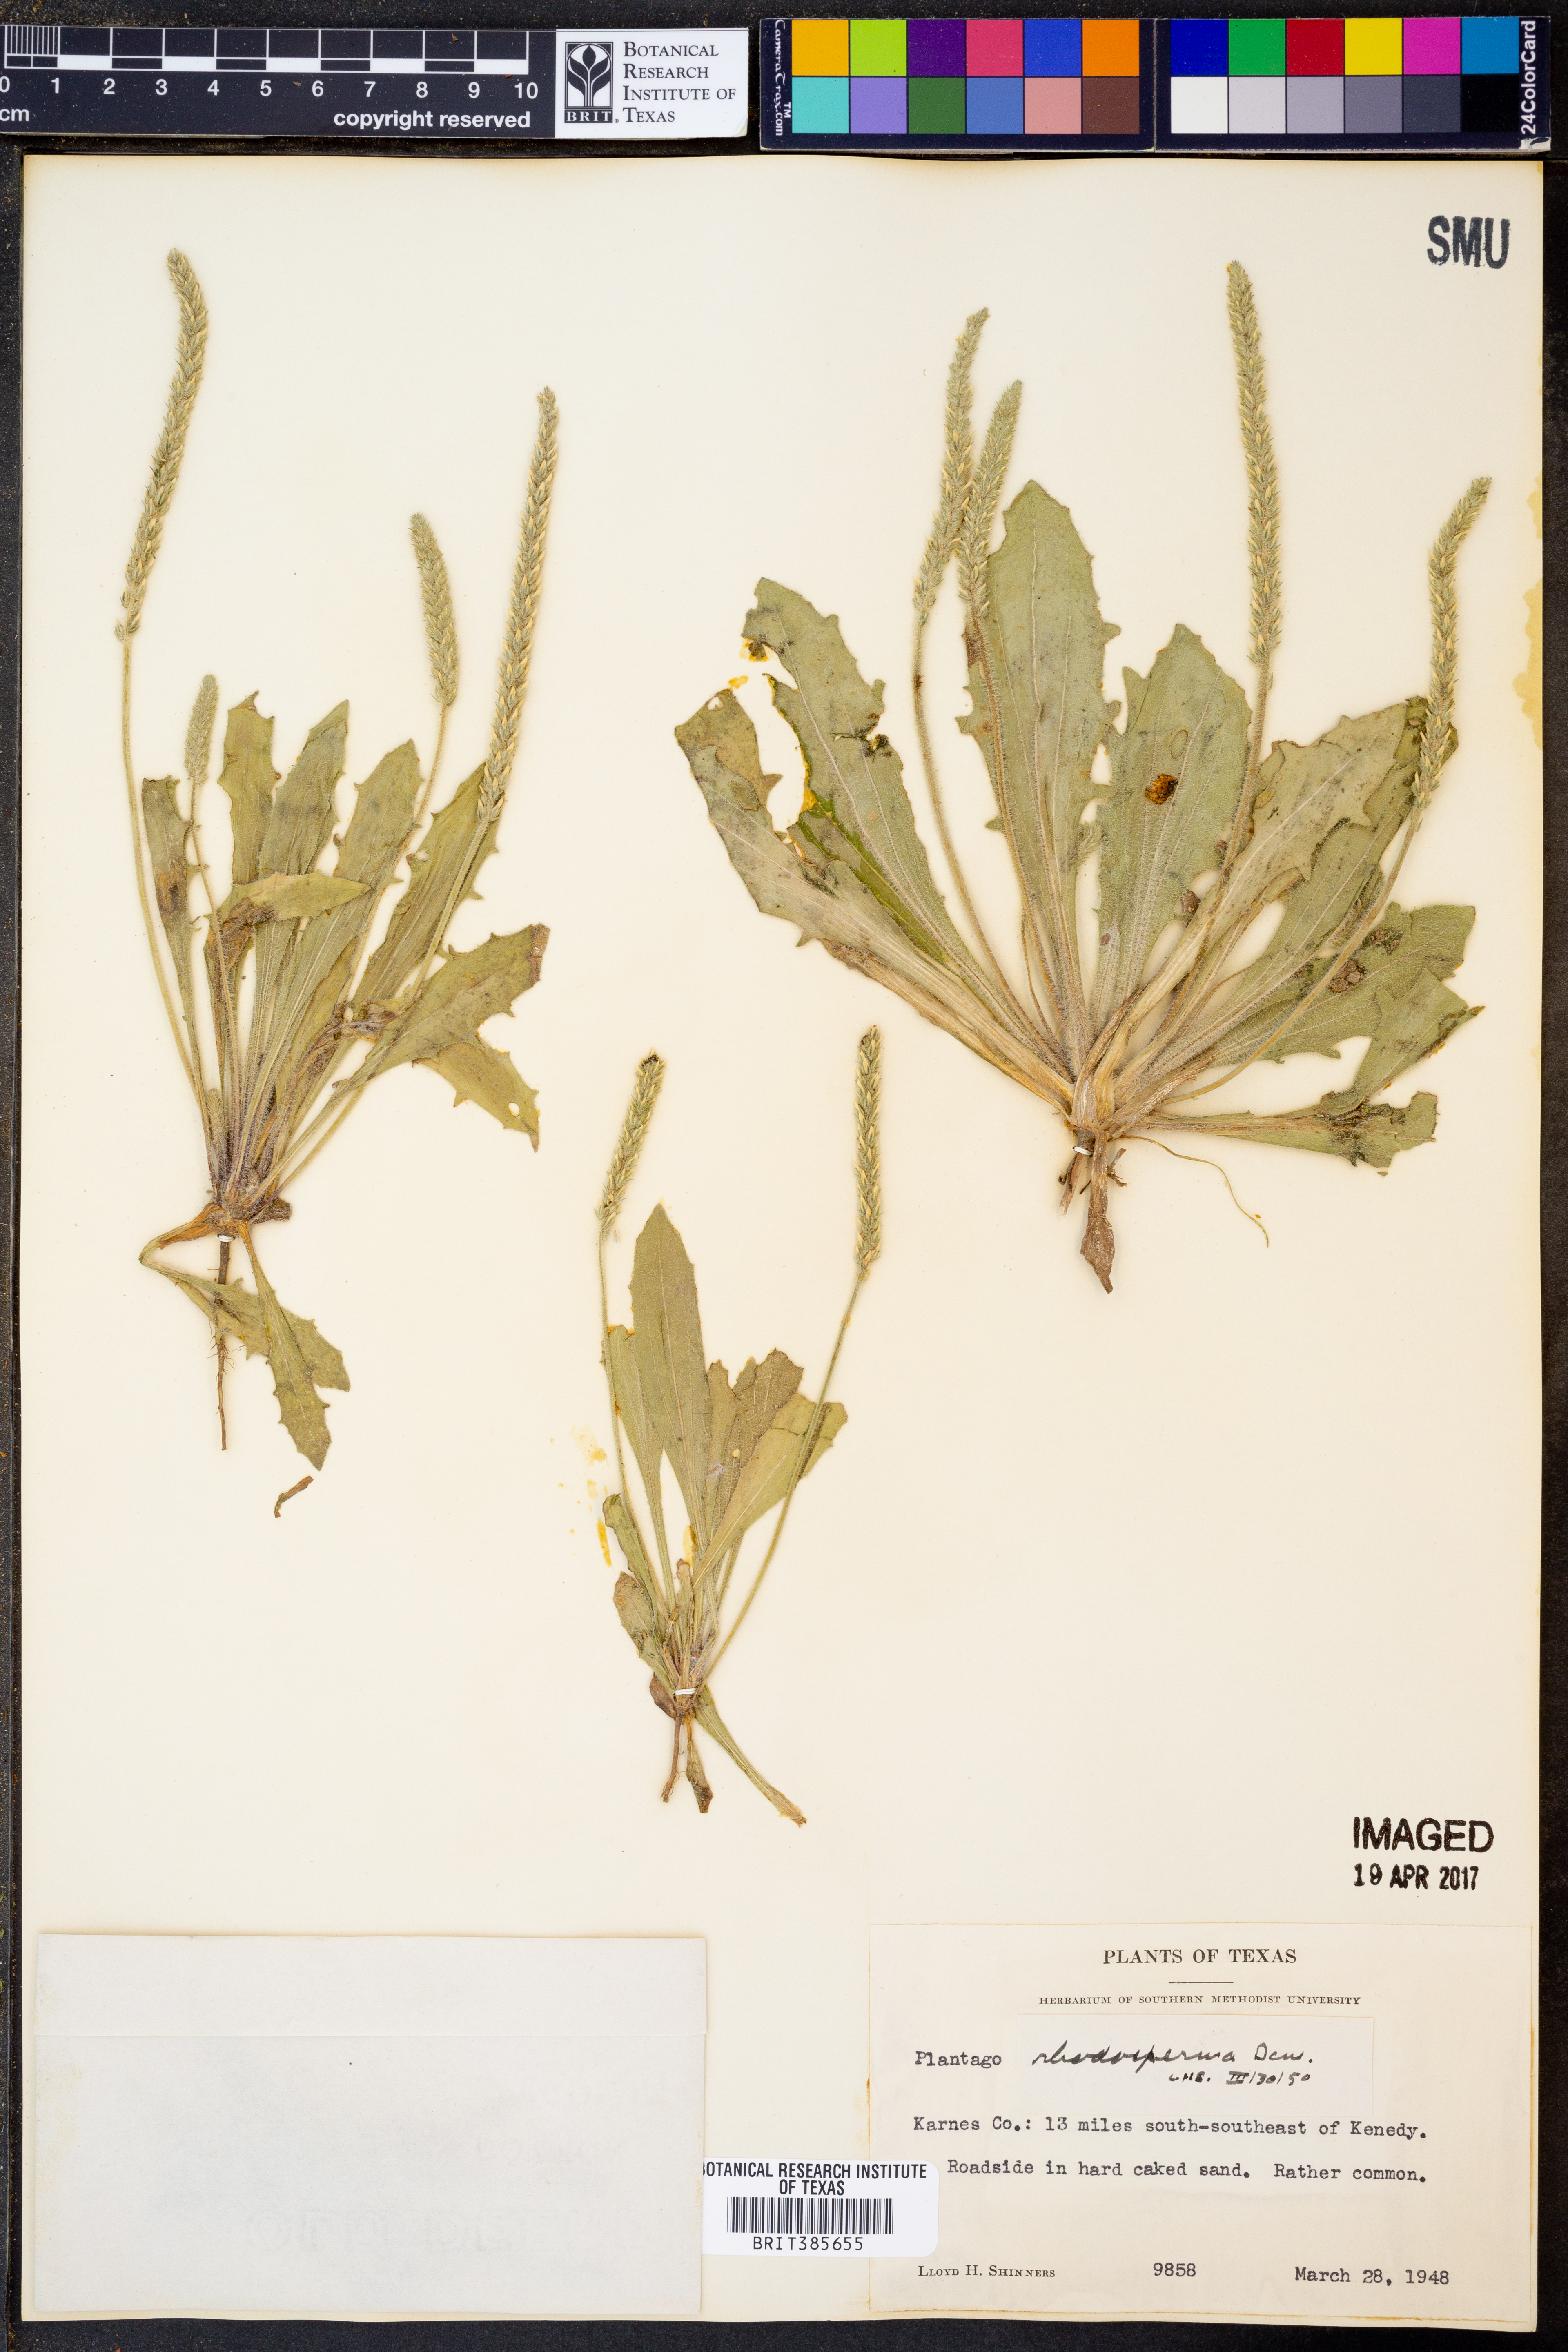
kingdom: Plantae
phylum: Tracheophyta
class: Magnoliopsida
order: Lamiales
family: Plantaginaceae
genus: Plantago
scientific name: Plantago rhodosperma
